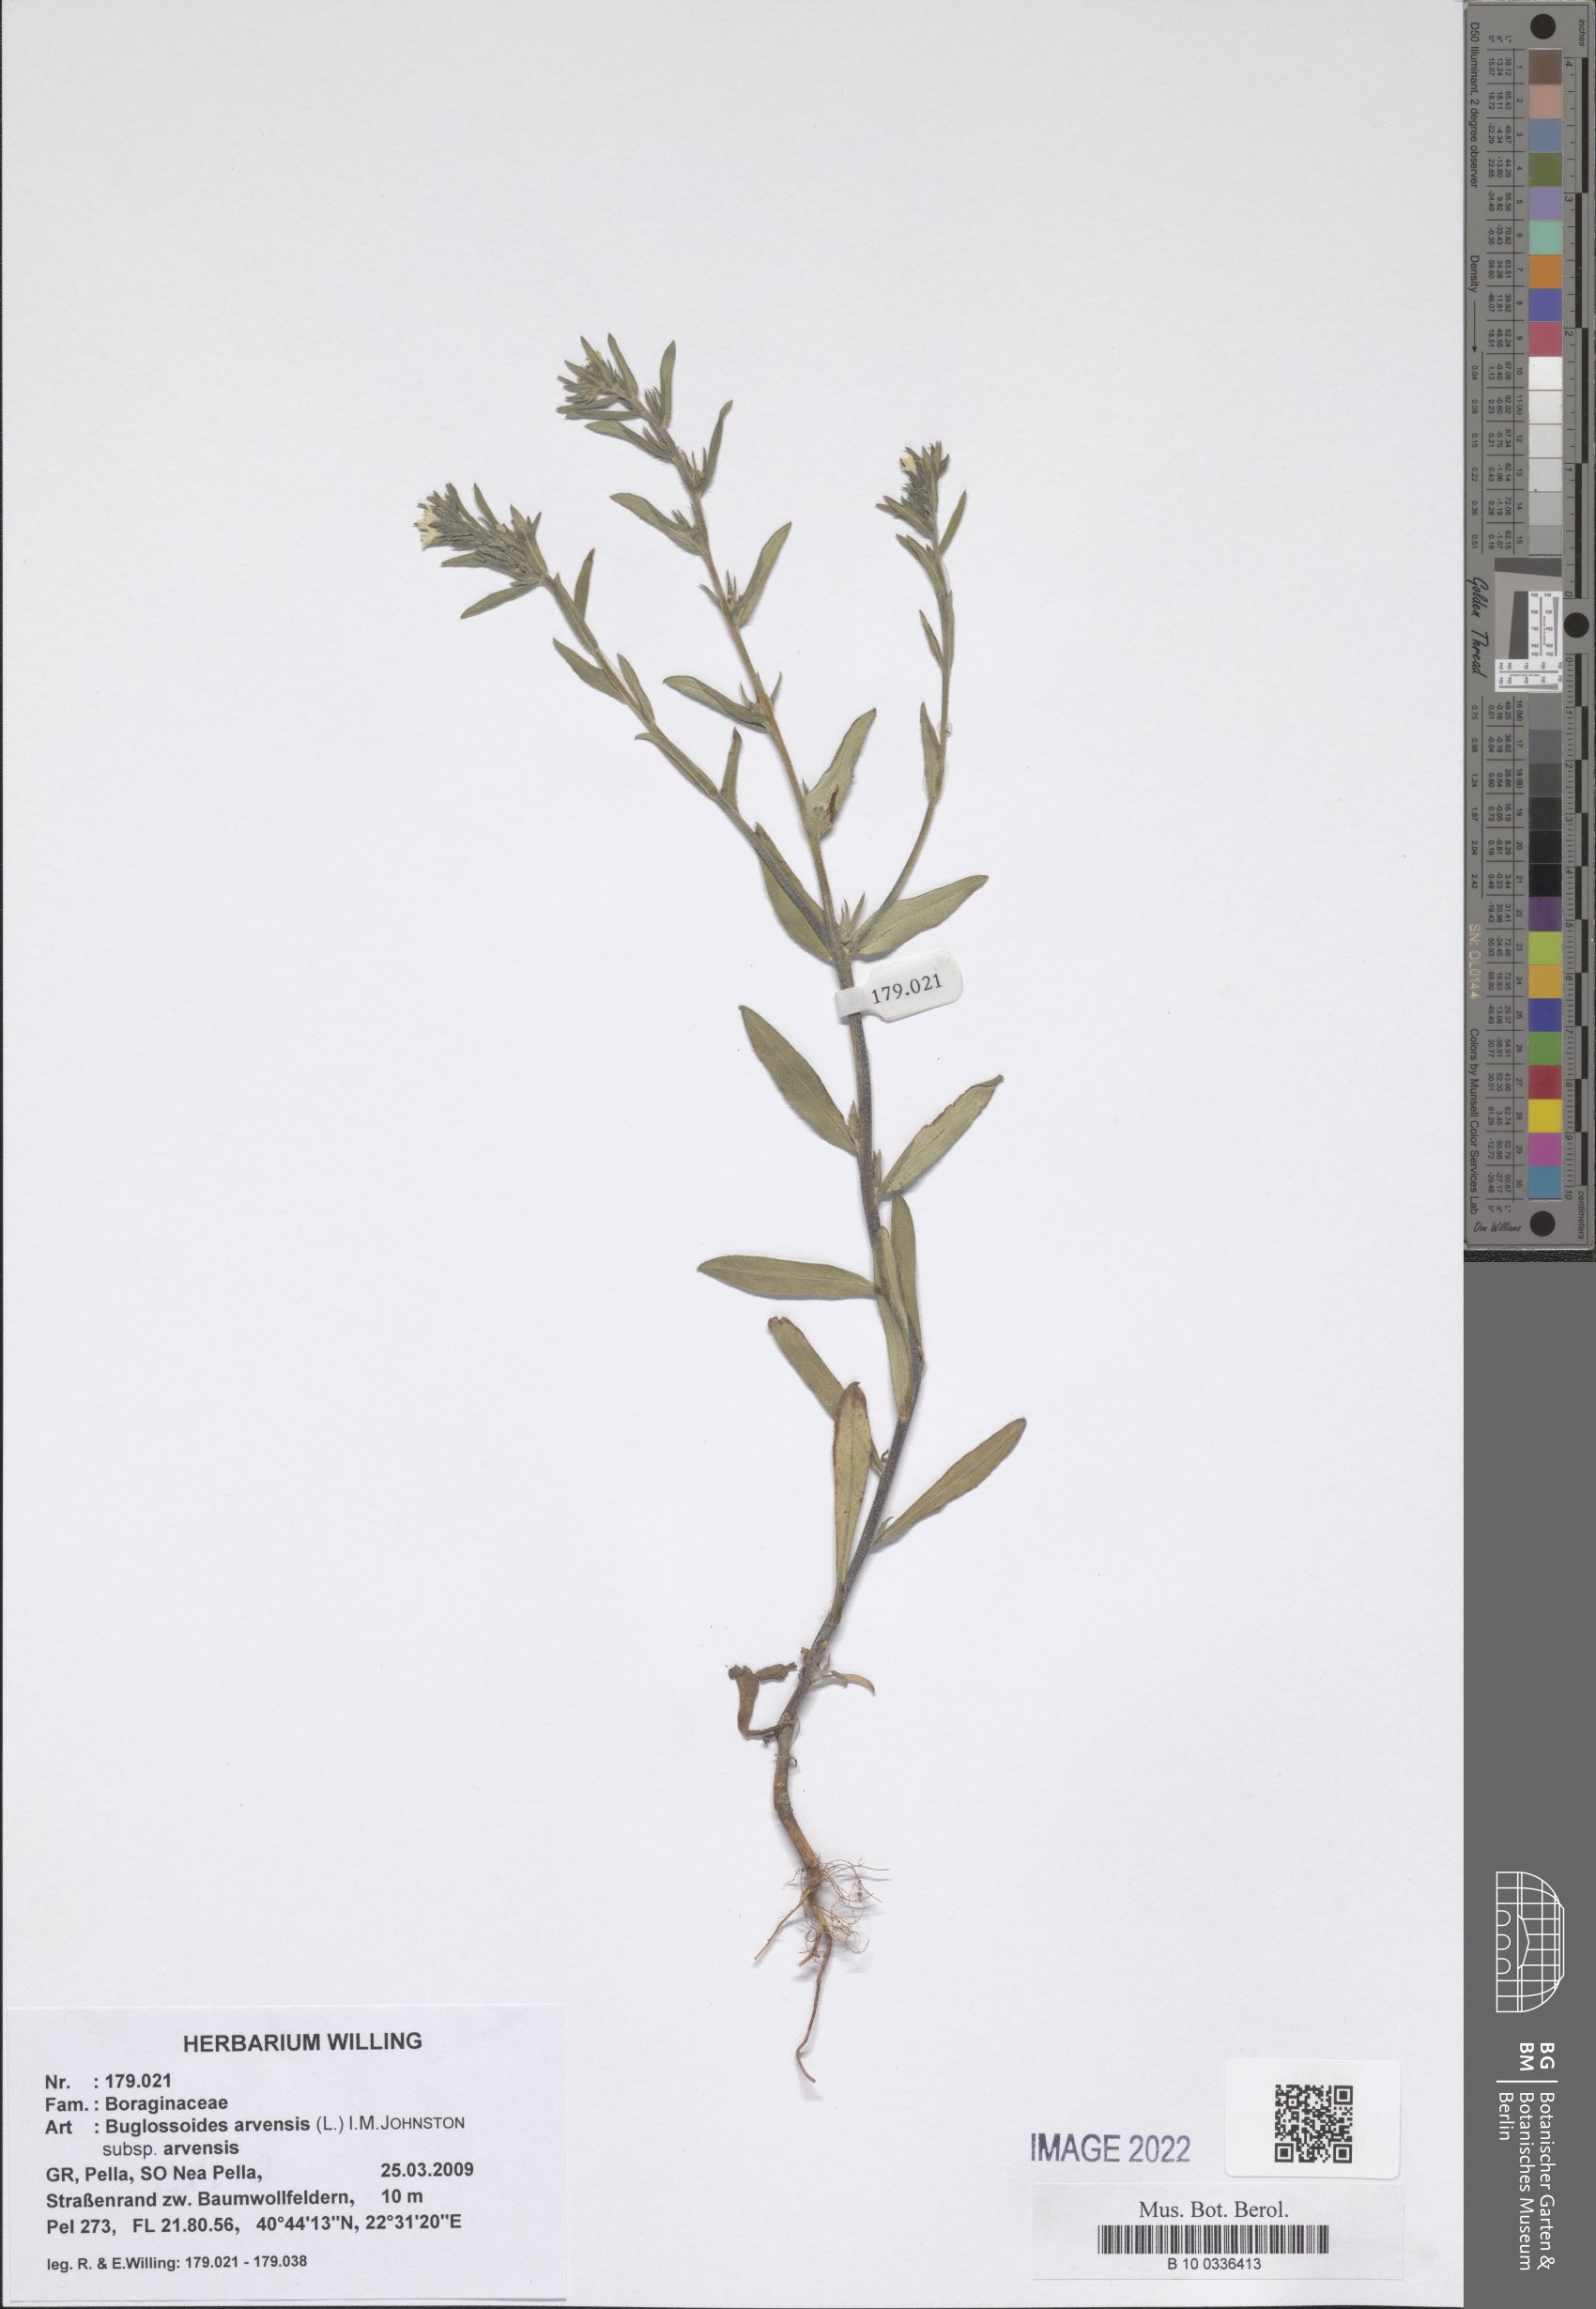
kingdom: Plantae
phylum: Tracheophyta
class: Magnoliopsida
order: Boraginales
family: Boraginaceae
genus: Buglossoides
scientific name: Buglossoides arvensis
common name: Corn gromwell
